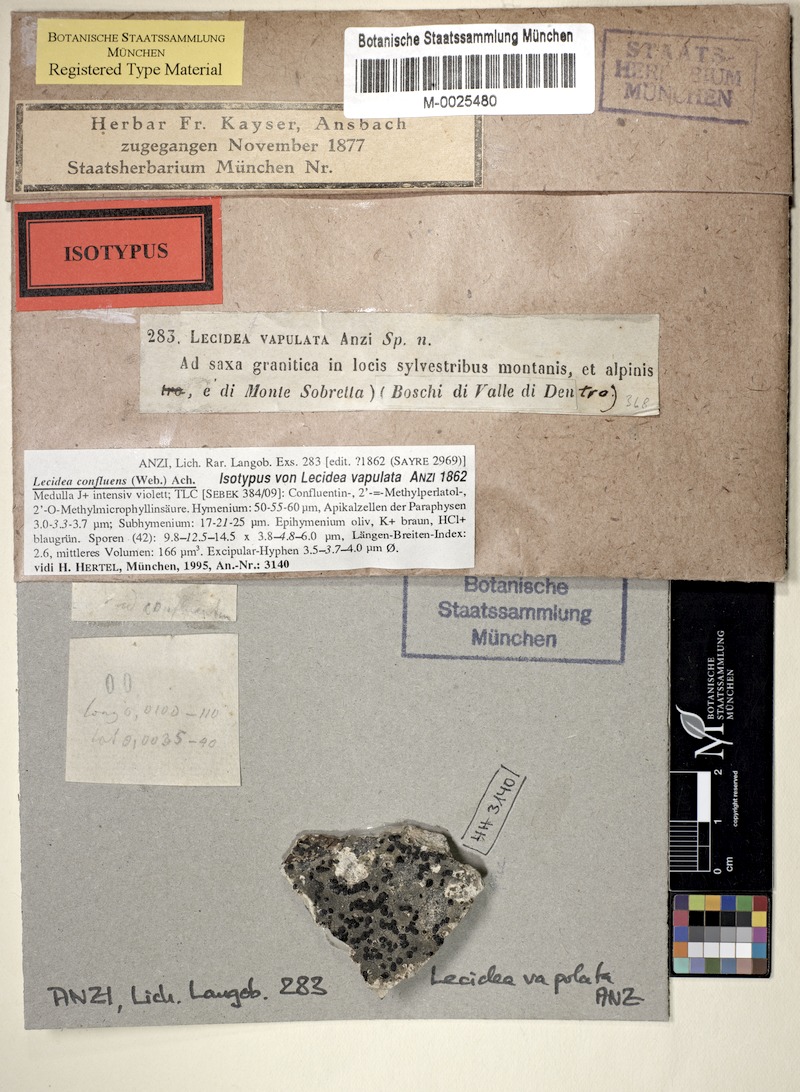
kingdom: Fungi
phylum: Ascomycota
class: Lecanoromycetes
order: Lecideales
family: Lecideaceae
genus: Lecidea
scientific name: Lecidea confluens
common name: Confluent disc lichen
